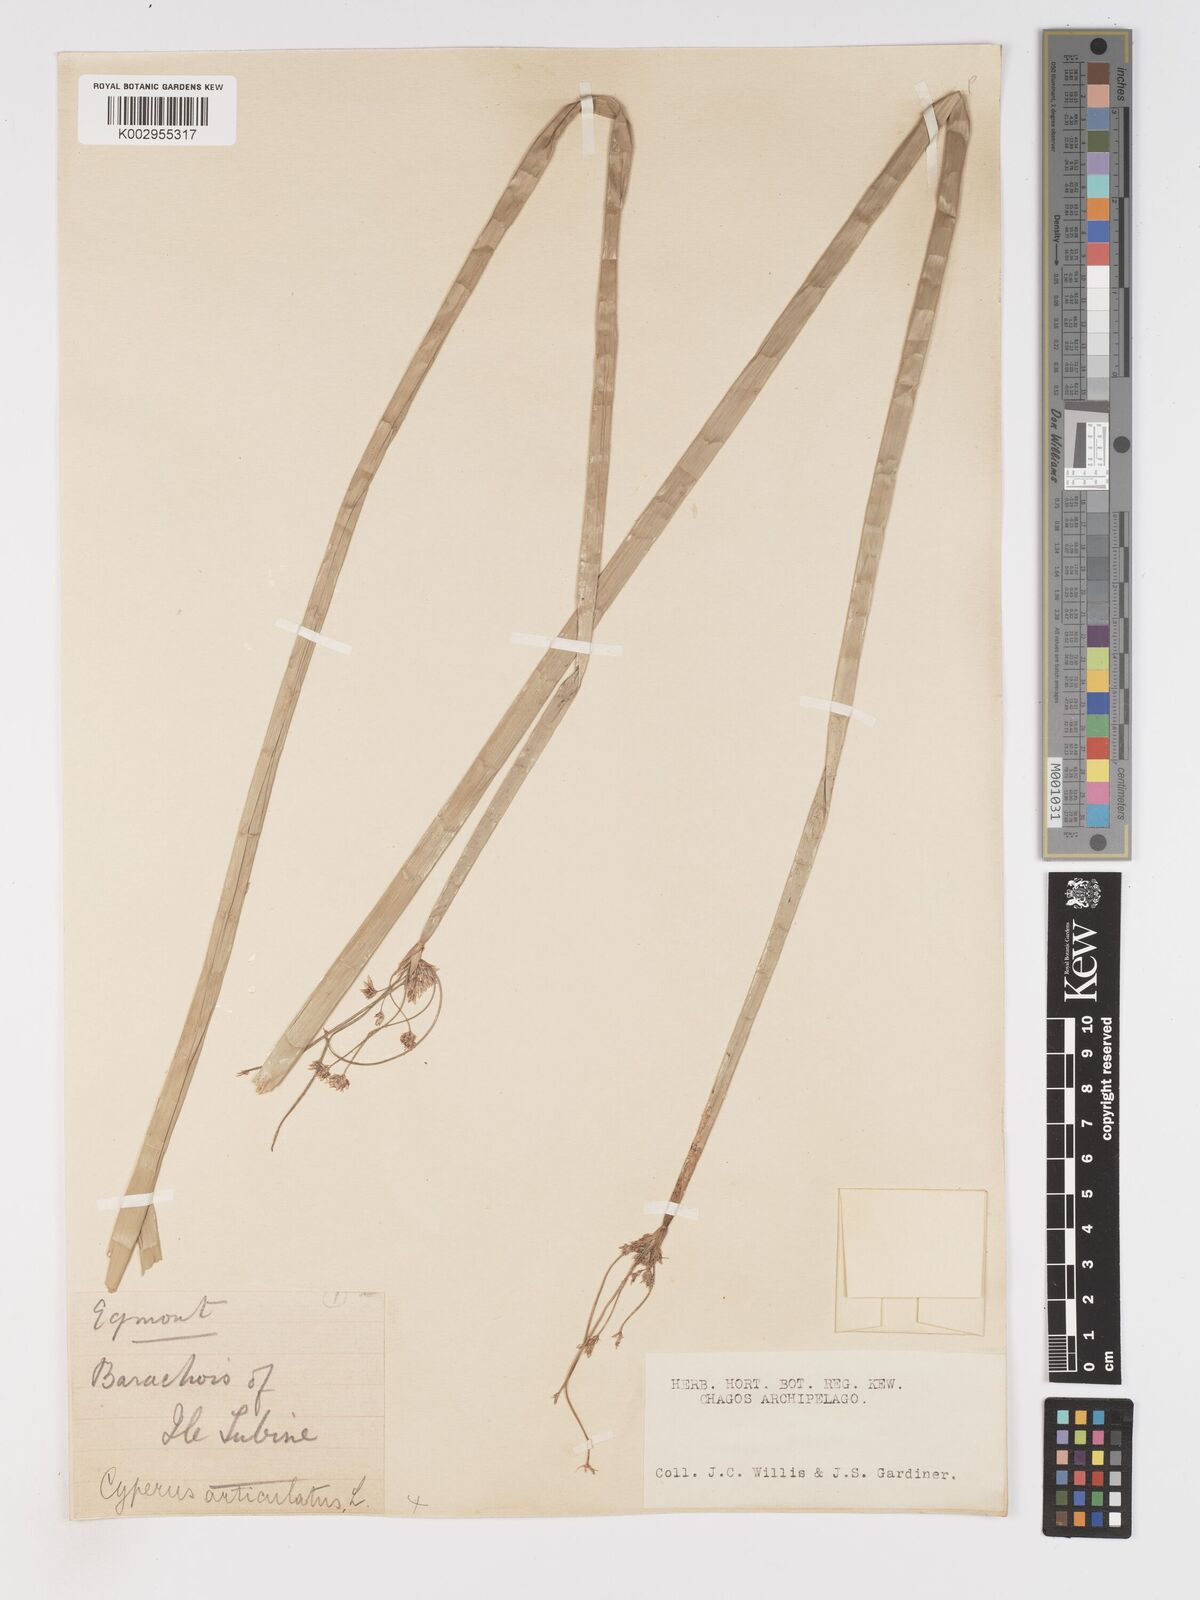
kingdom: Plantae
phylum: Tracheophyta
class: Liliopsida
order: Poales
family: Cyperaceae
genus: Cyperus
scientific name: Cyperus articulatus
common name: Jointed flatsedge
